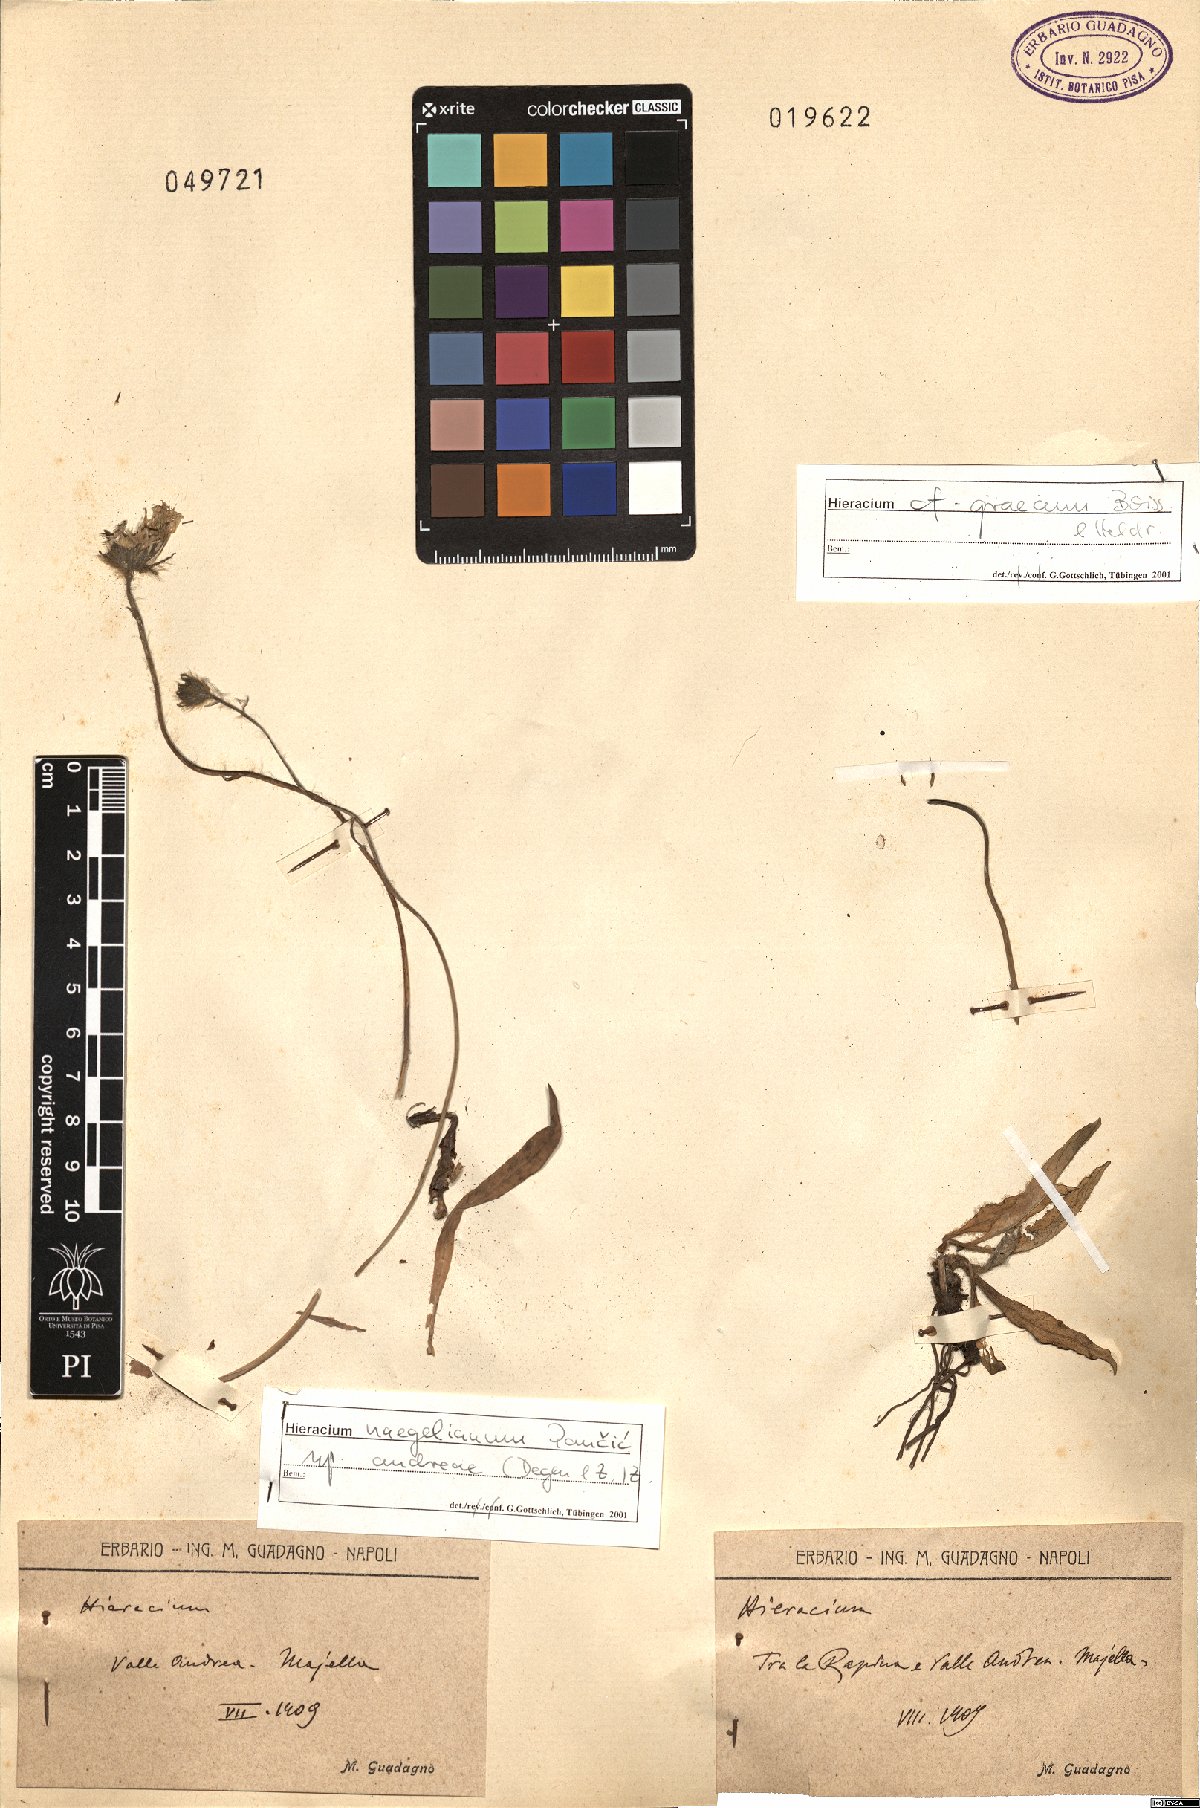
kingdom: Plantae
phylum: Tracheophyta
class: Magnoliopsida
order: Asterales
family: Asteraceae
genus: Hieracium
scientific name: Hieracium naegelianum
